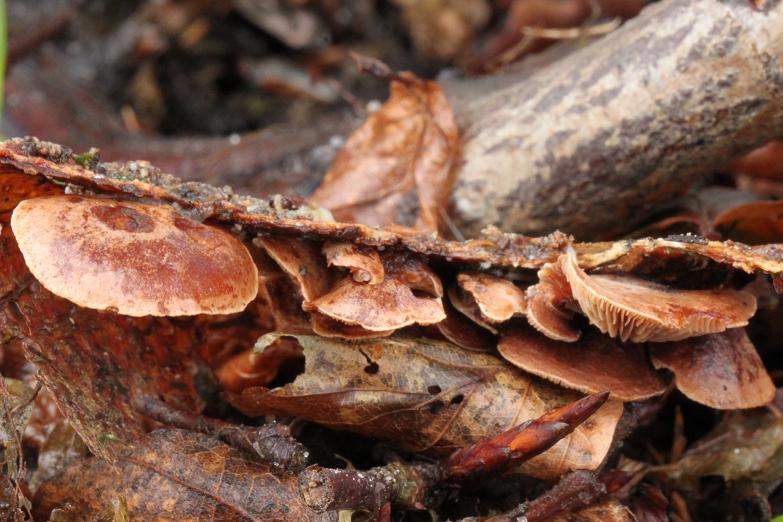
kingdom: Fungi
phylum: Basidiomycota
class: Agaricomycetes
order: Agaricales
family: Strophariaceae
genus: Deconica
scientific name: Deconica horizontalis
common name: ved-stråhat
